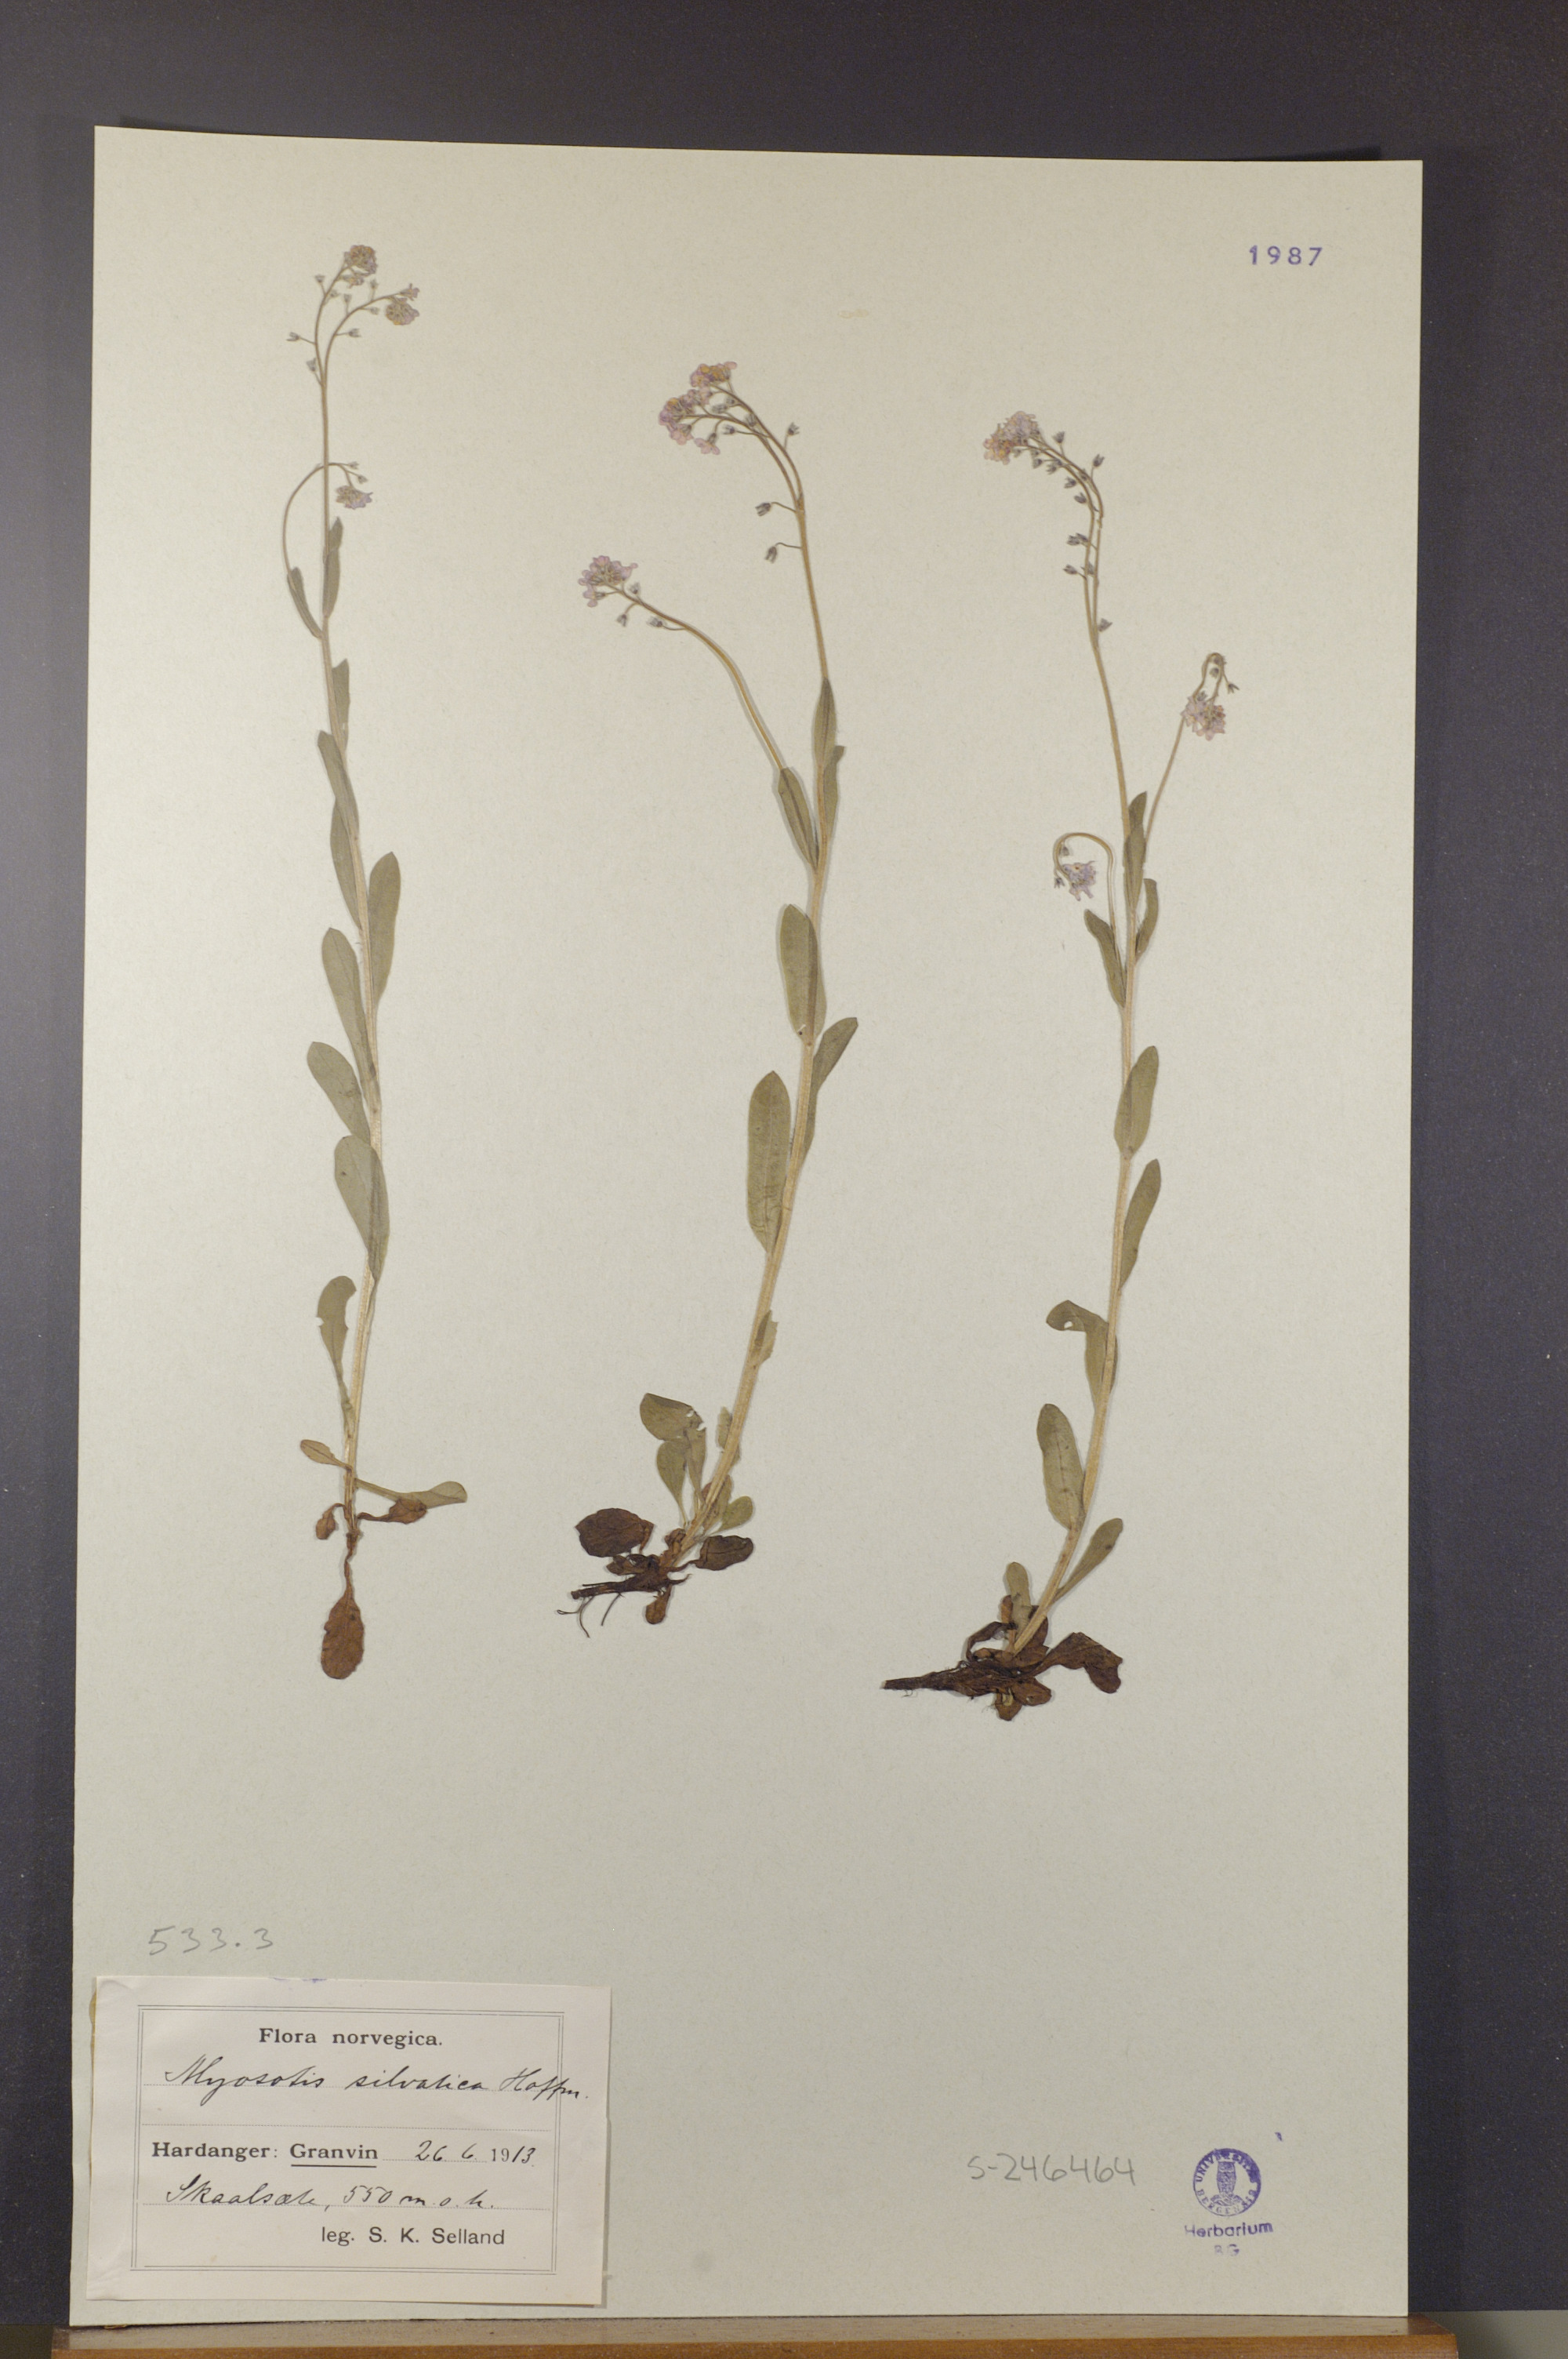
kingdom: Plantae
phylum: Tracheophyta
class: Magnoliopsida
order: Boraginales
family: Boraginaceae
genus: Myosotis
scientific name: Myosotis decumbens
